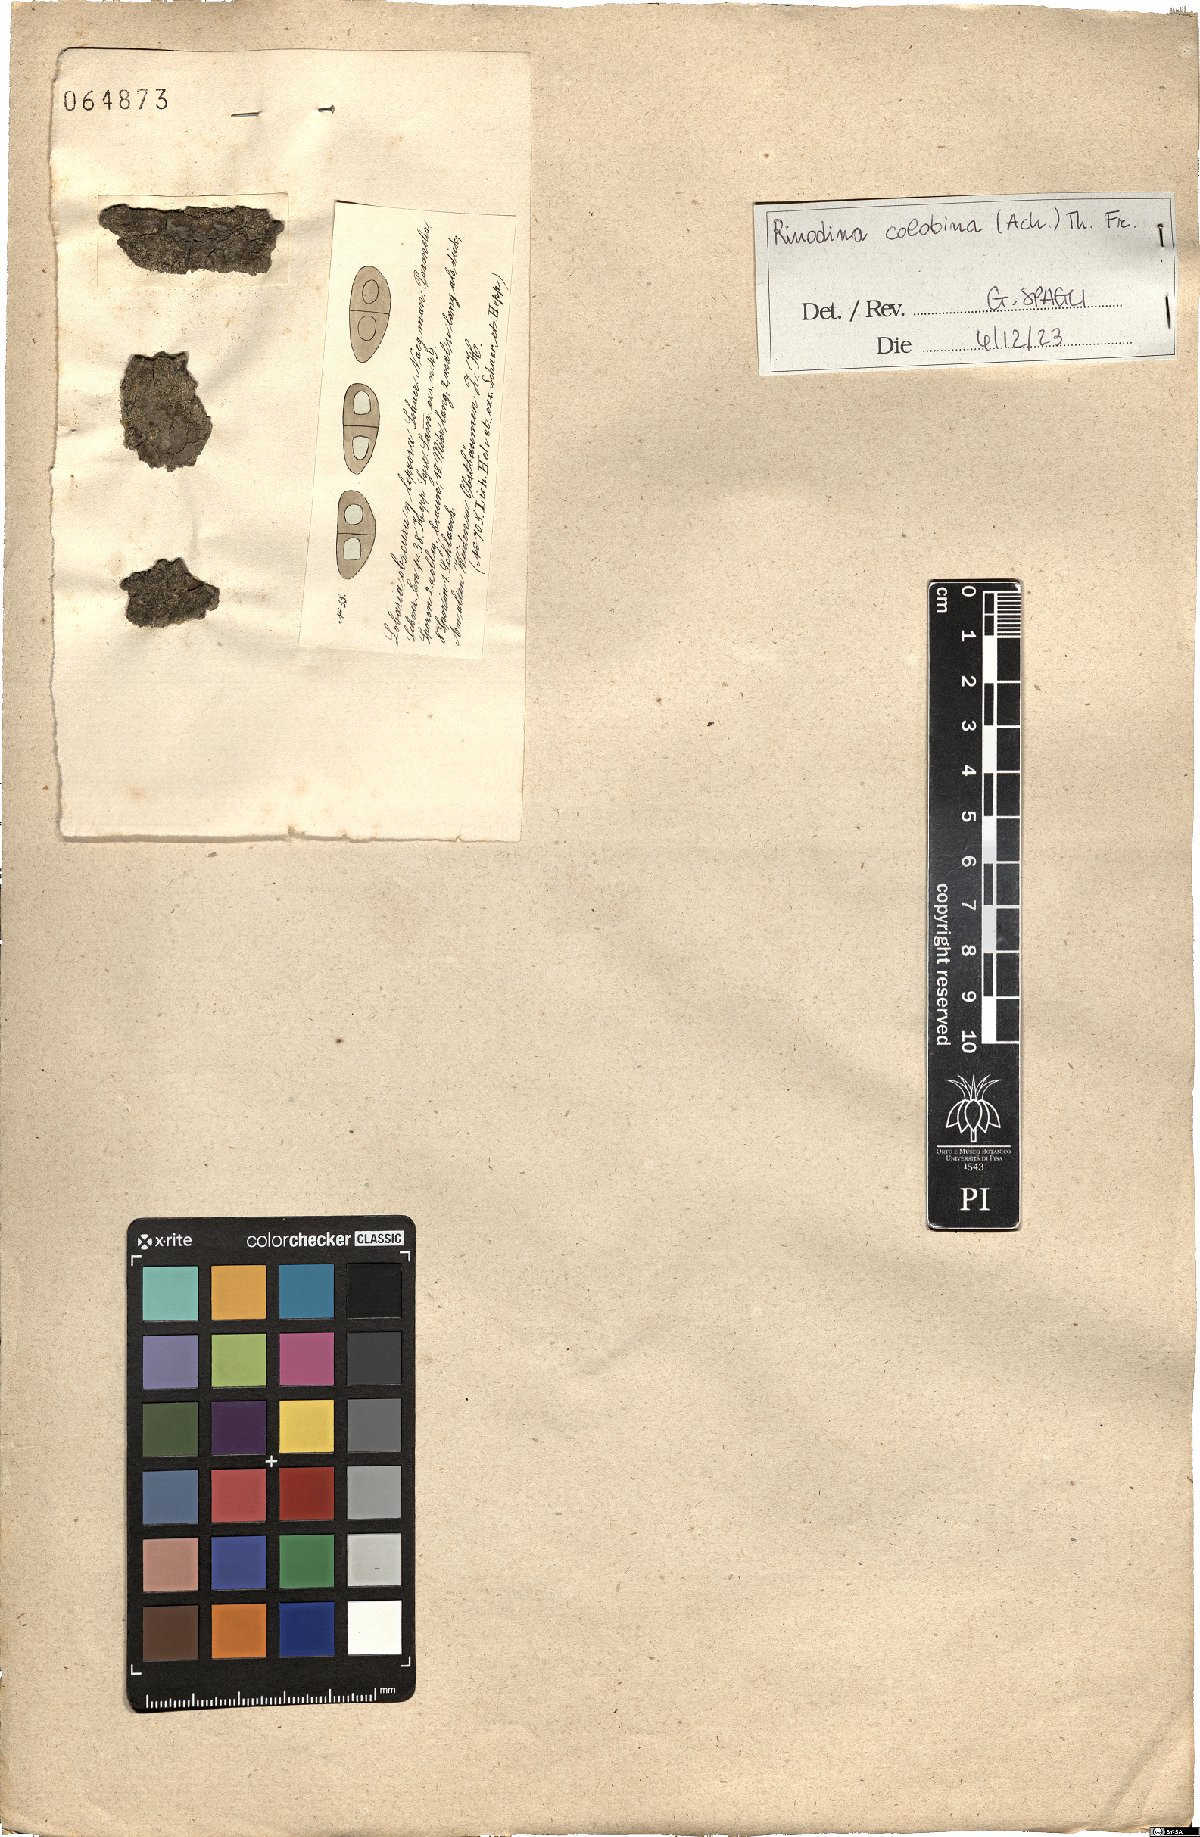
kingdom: Fungi
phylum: Ascomycota
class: Lecanoromycetes
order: Caliciales
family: Physciaceae
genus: Rinodina
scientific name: Rinodina colobina
